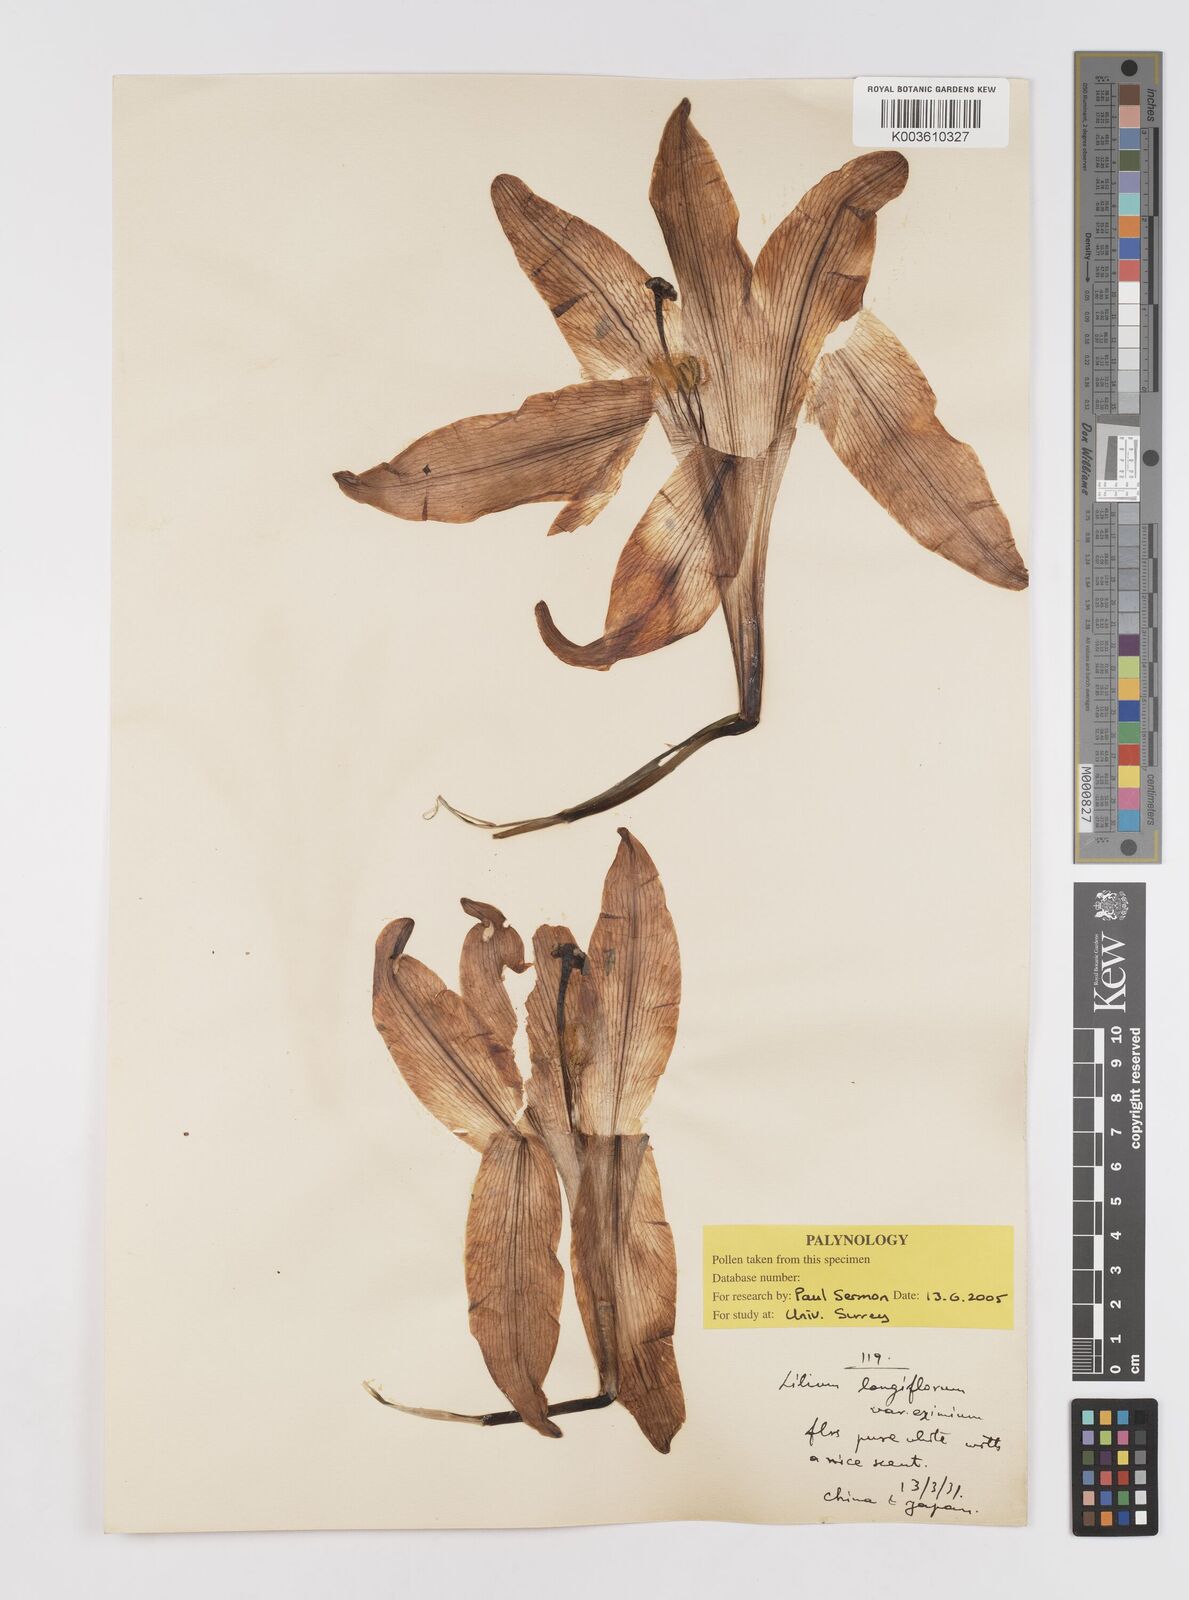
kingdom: Plantae
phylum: Tracheophyta
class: Liliopsida
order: Liliales
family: Liliaceae
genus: Lilium
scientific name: Lilium wallichianum
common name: Wallich's lily
